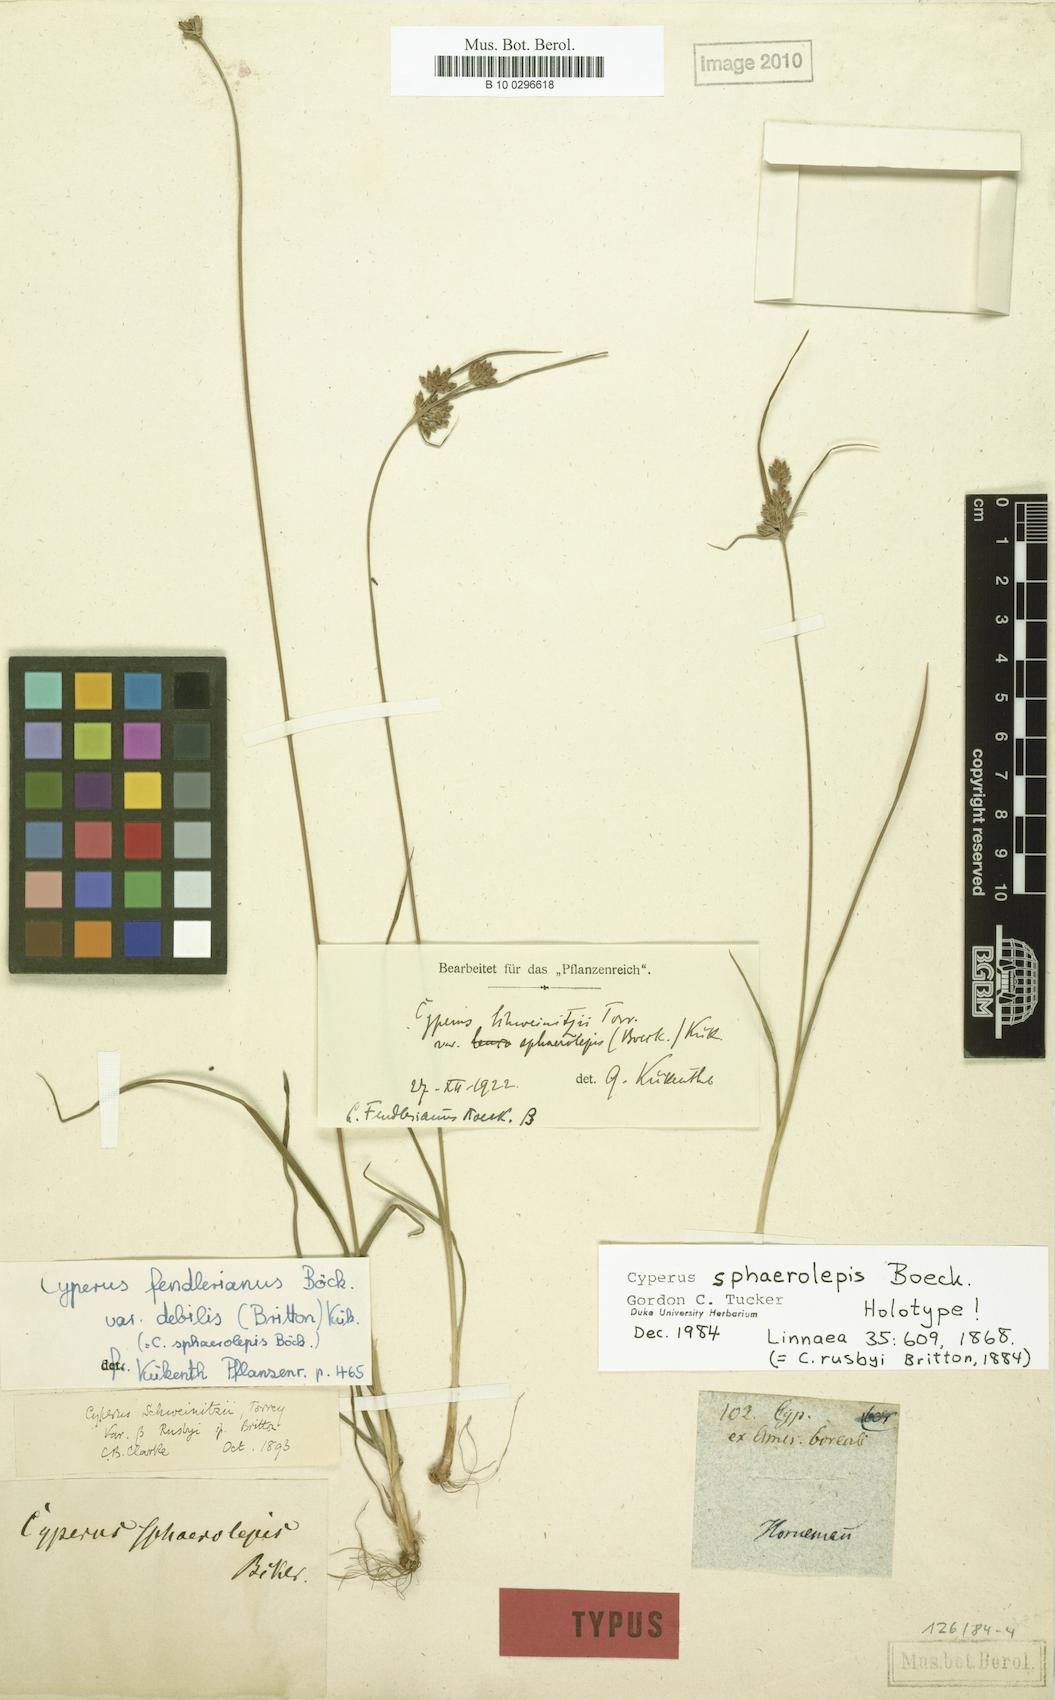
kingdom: Plantae
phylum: Tracheophyta
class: Liliopsida
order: Poales
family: Cyperaceae
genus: Cyperus
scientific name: Cyperus sphaerolepis
